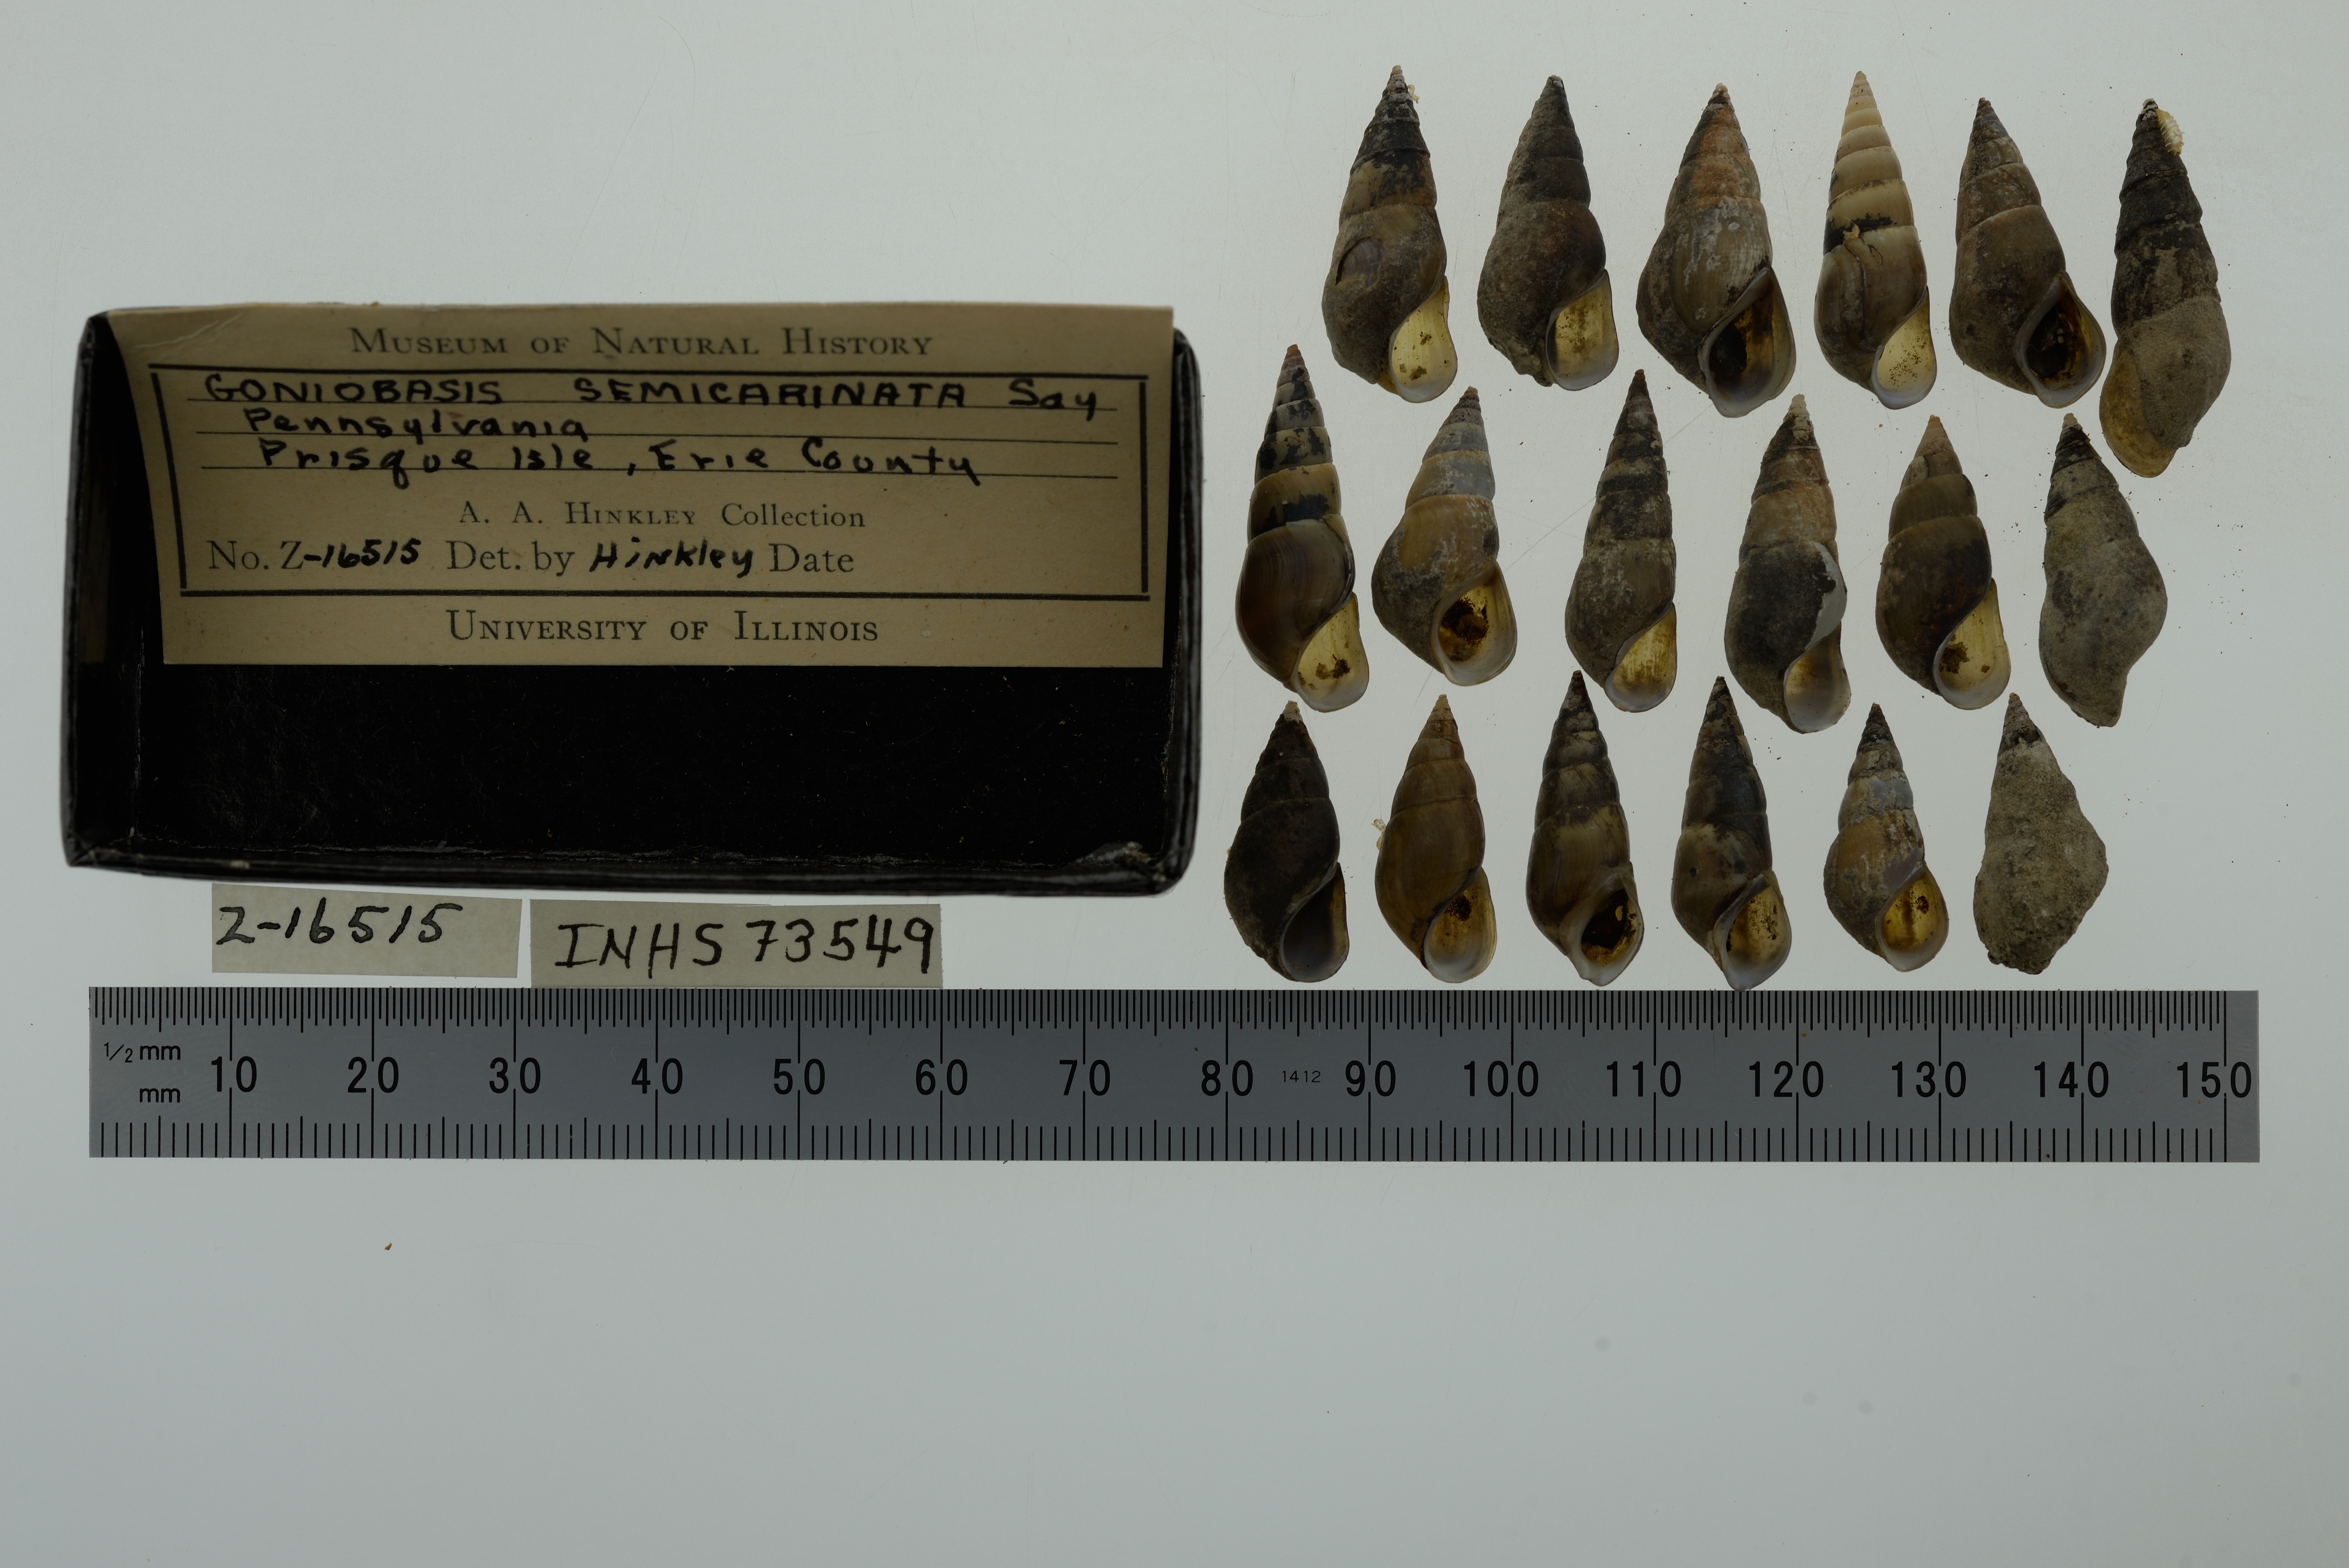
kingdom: Animalia
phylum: Mollusca
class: Gastropoda
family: Pleuroceridae
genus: Elimia
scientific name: Elimia livescens
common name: Liver elimia
